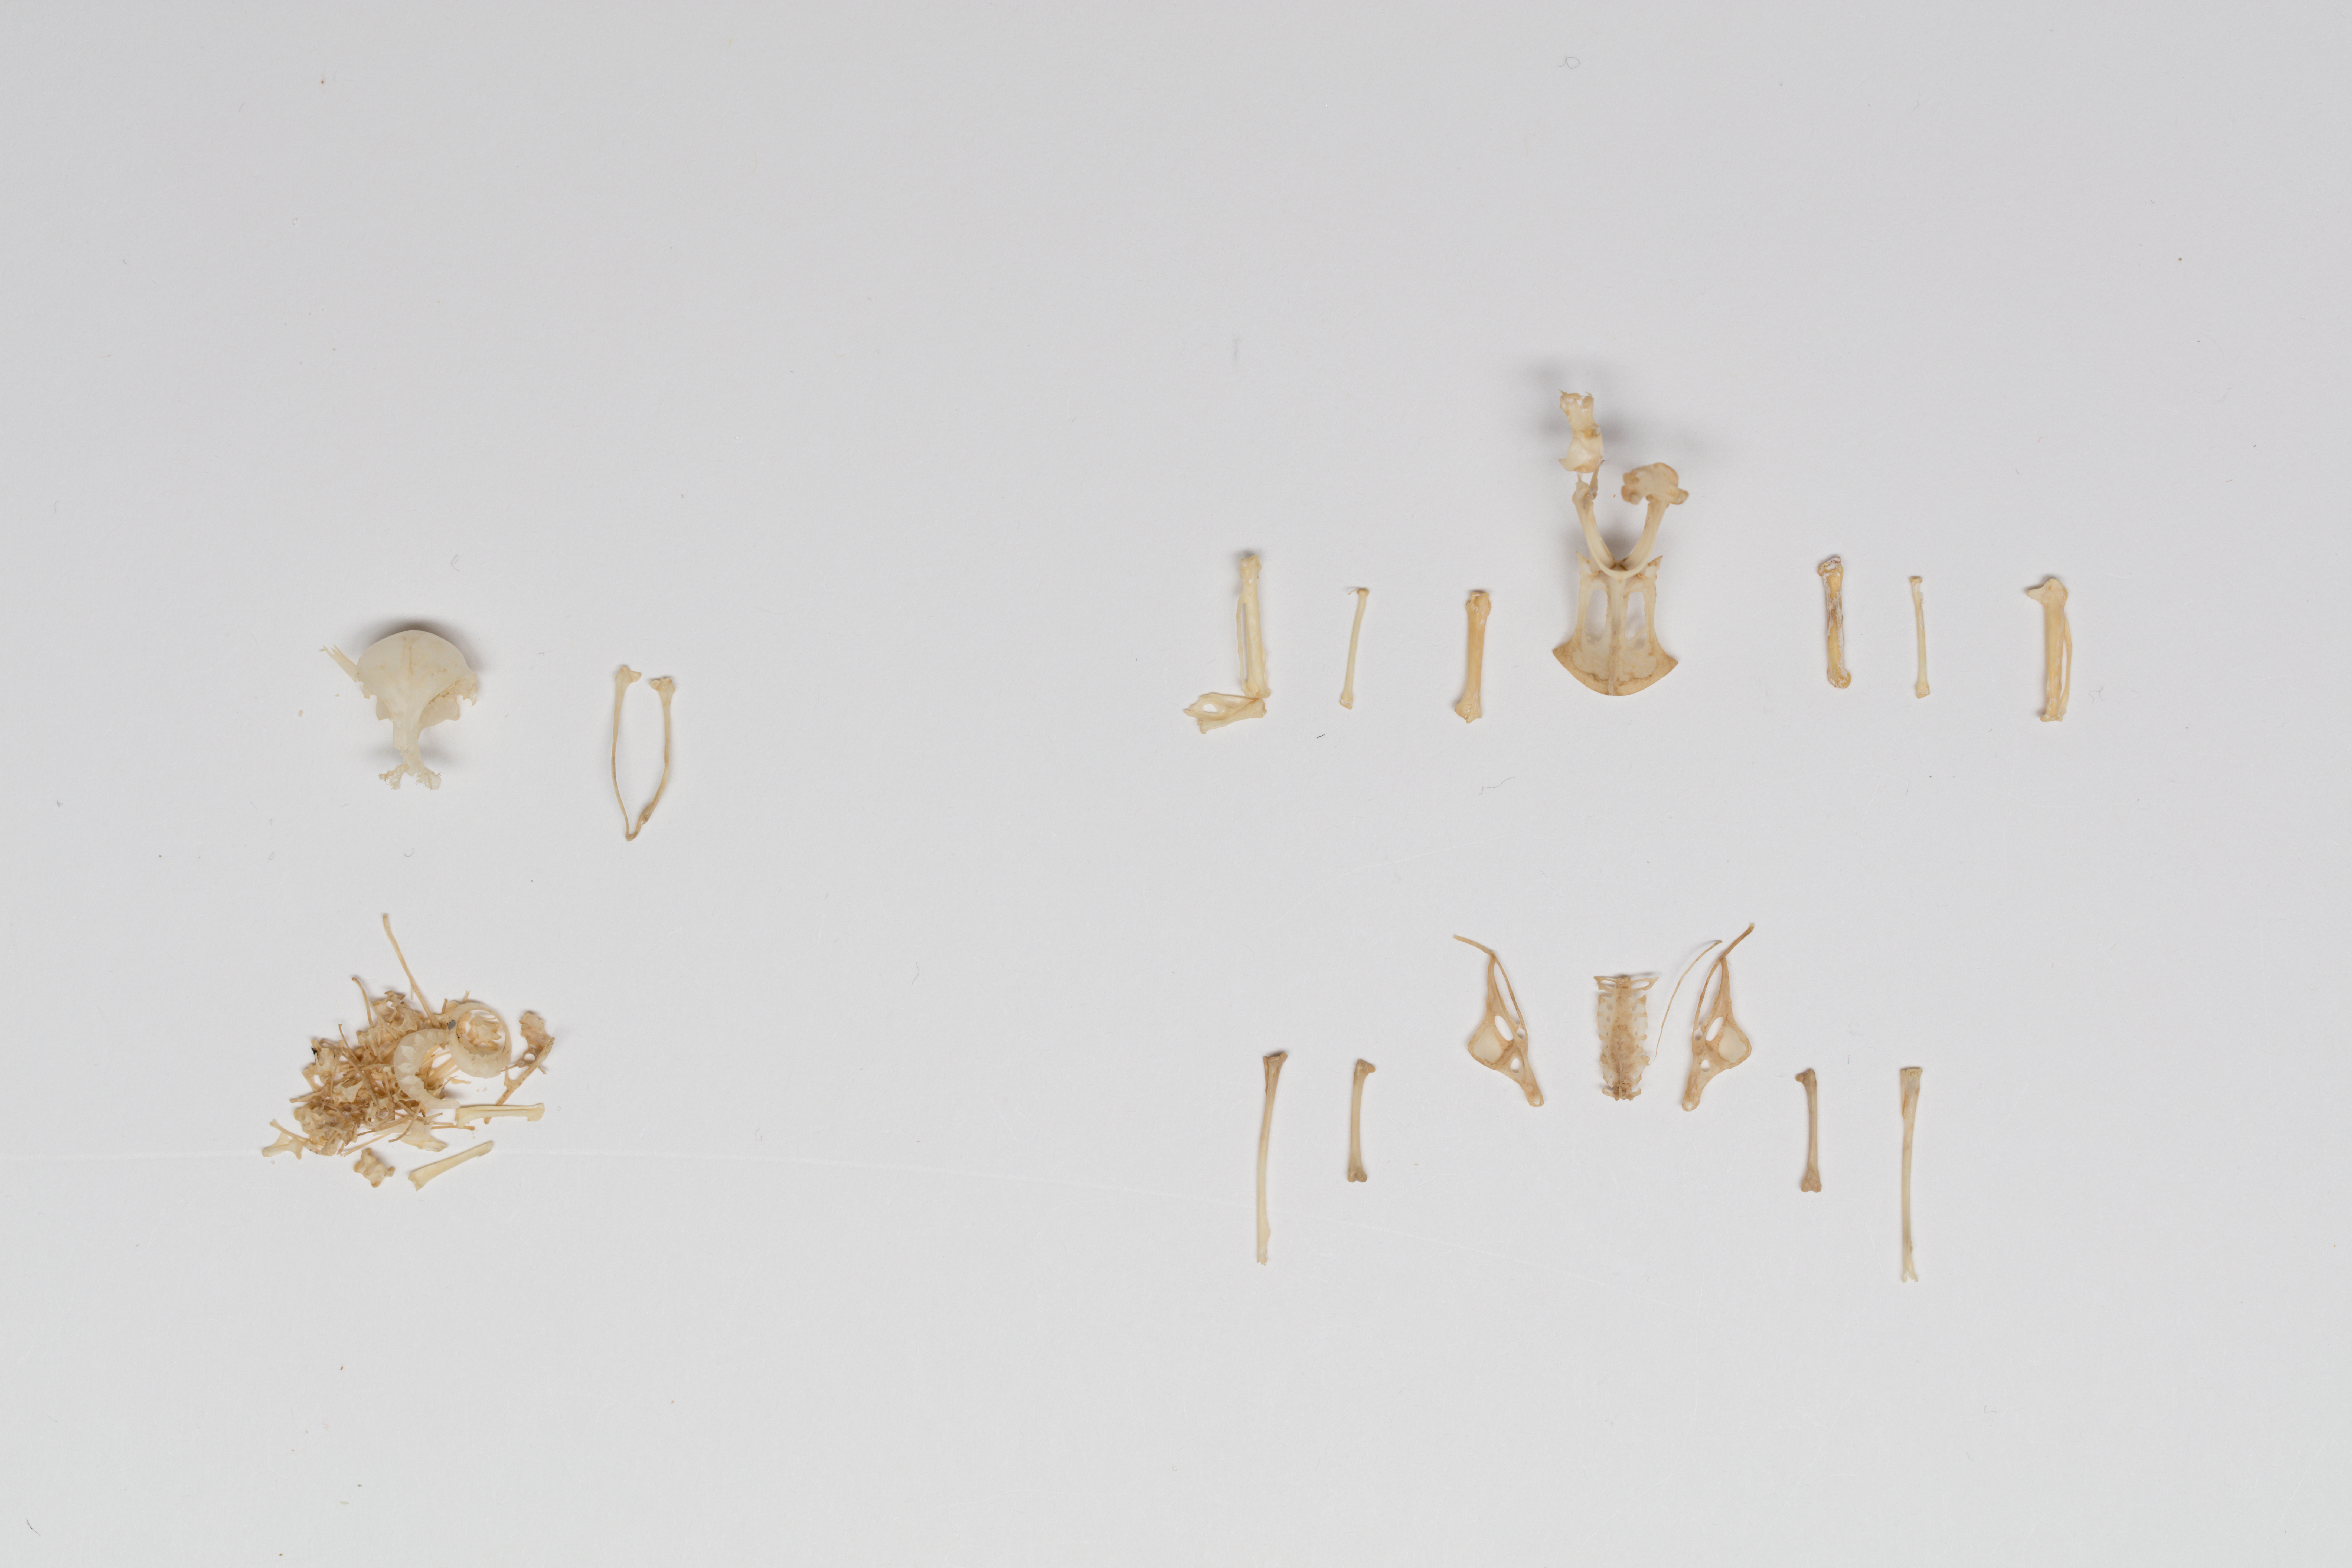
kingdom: Animalia
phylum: Chordata
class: Aves
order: Apodiformes
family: Apodidae
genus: Aerodramus
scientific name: Aerodramus leucophaeus
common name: Tahiti swiftlet
